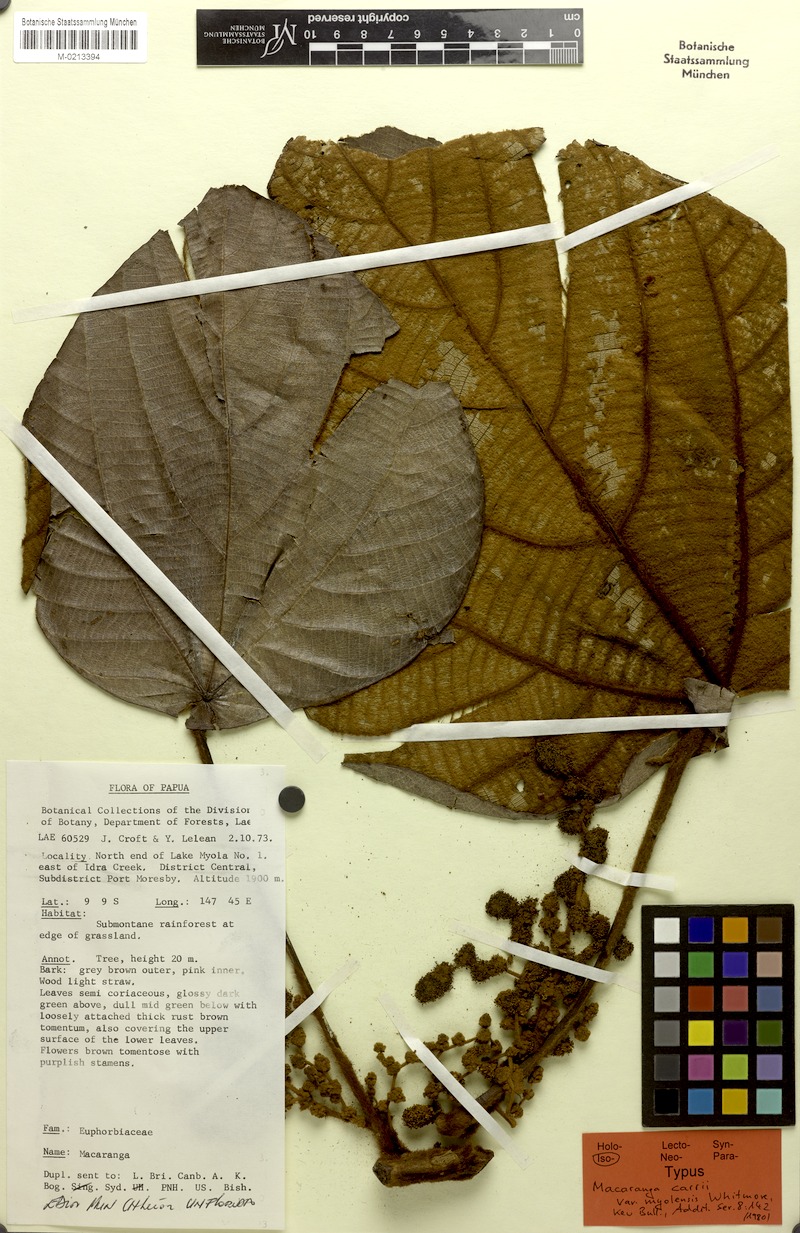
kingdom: Plantae
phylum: Tracheophyta
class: Magnoliopsida
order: Malpighiales
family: Euphorbiaceae
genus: Macaranga
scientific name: Macaranga carrii
